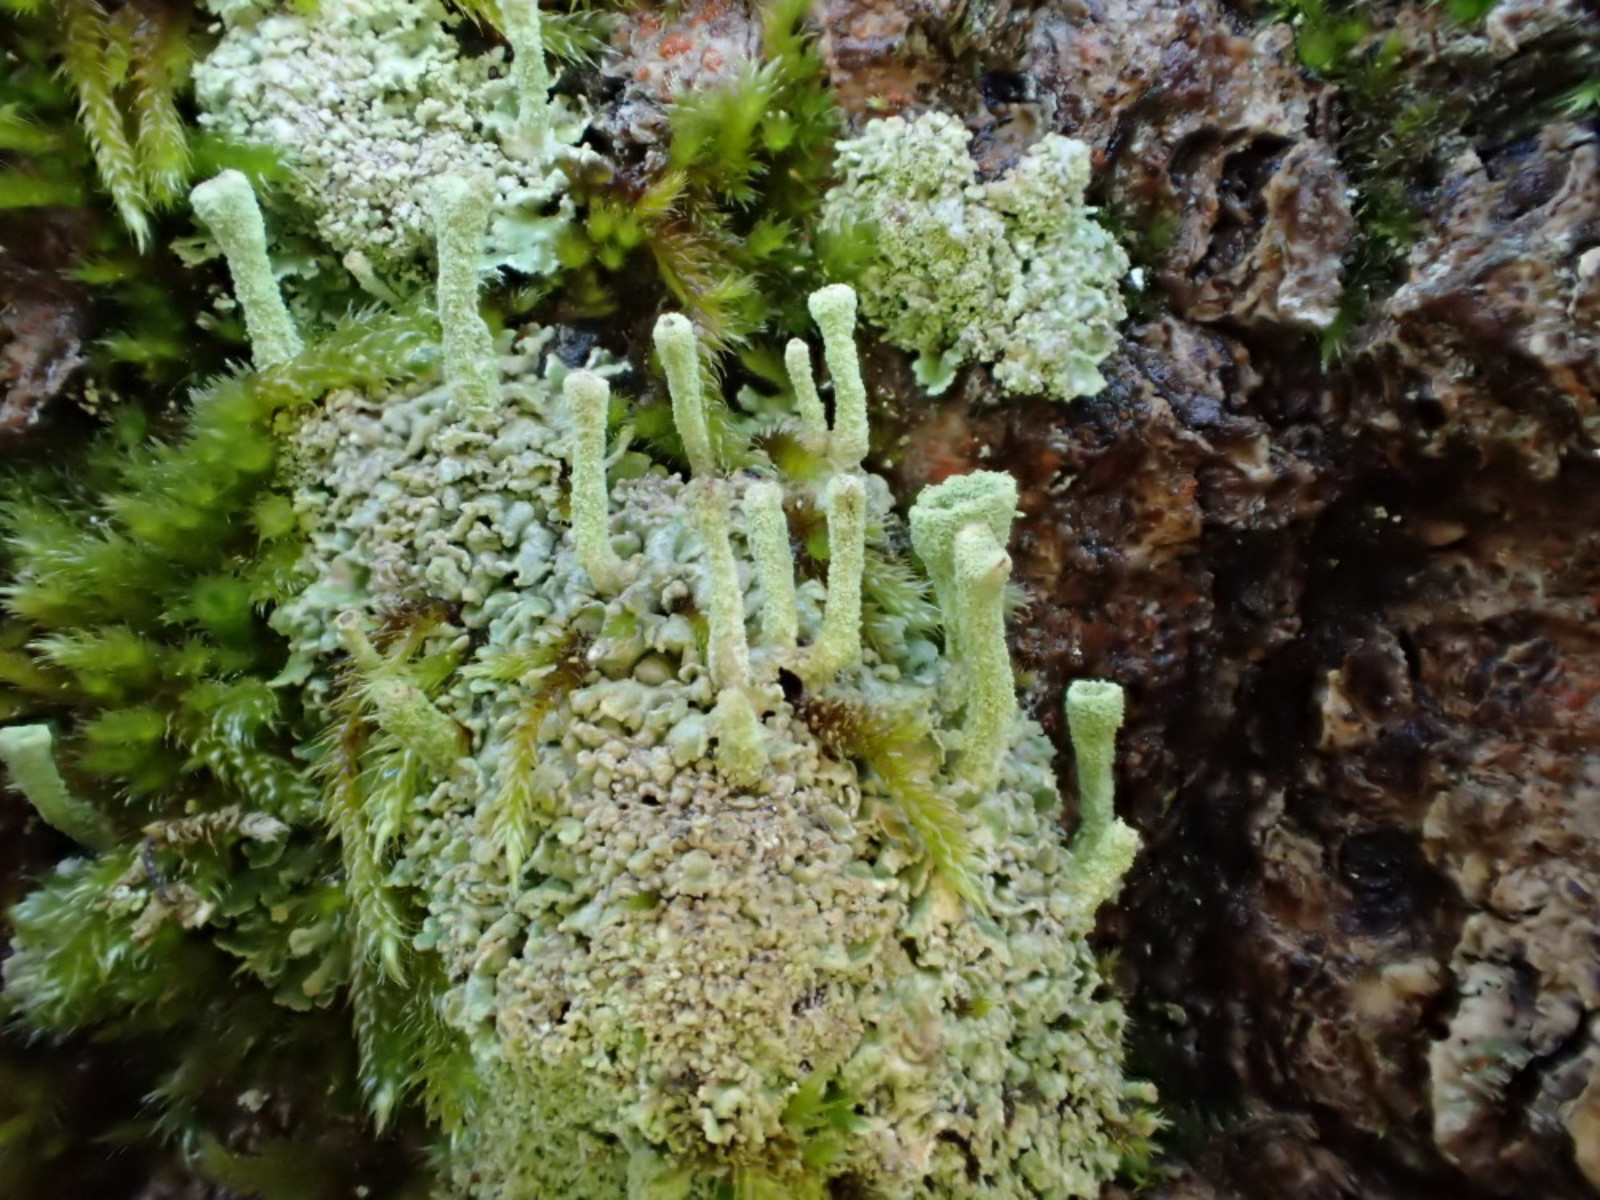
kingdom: Fungi
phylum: Ascomycota
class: Lecanoromycetes
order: Lecanorales
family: Cladoniaceae
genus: Cladonia
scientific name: Cladonia
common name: brungrøn bægerlav
